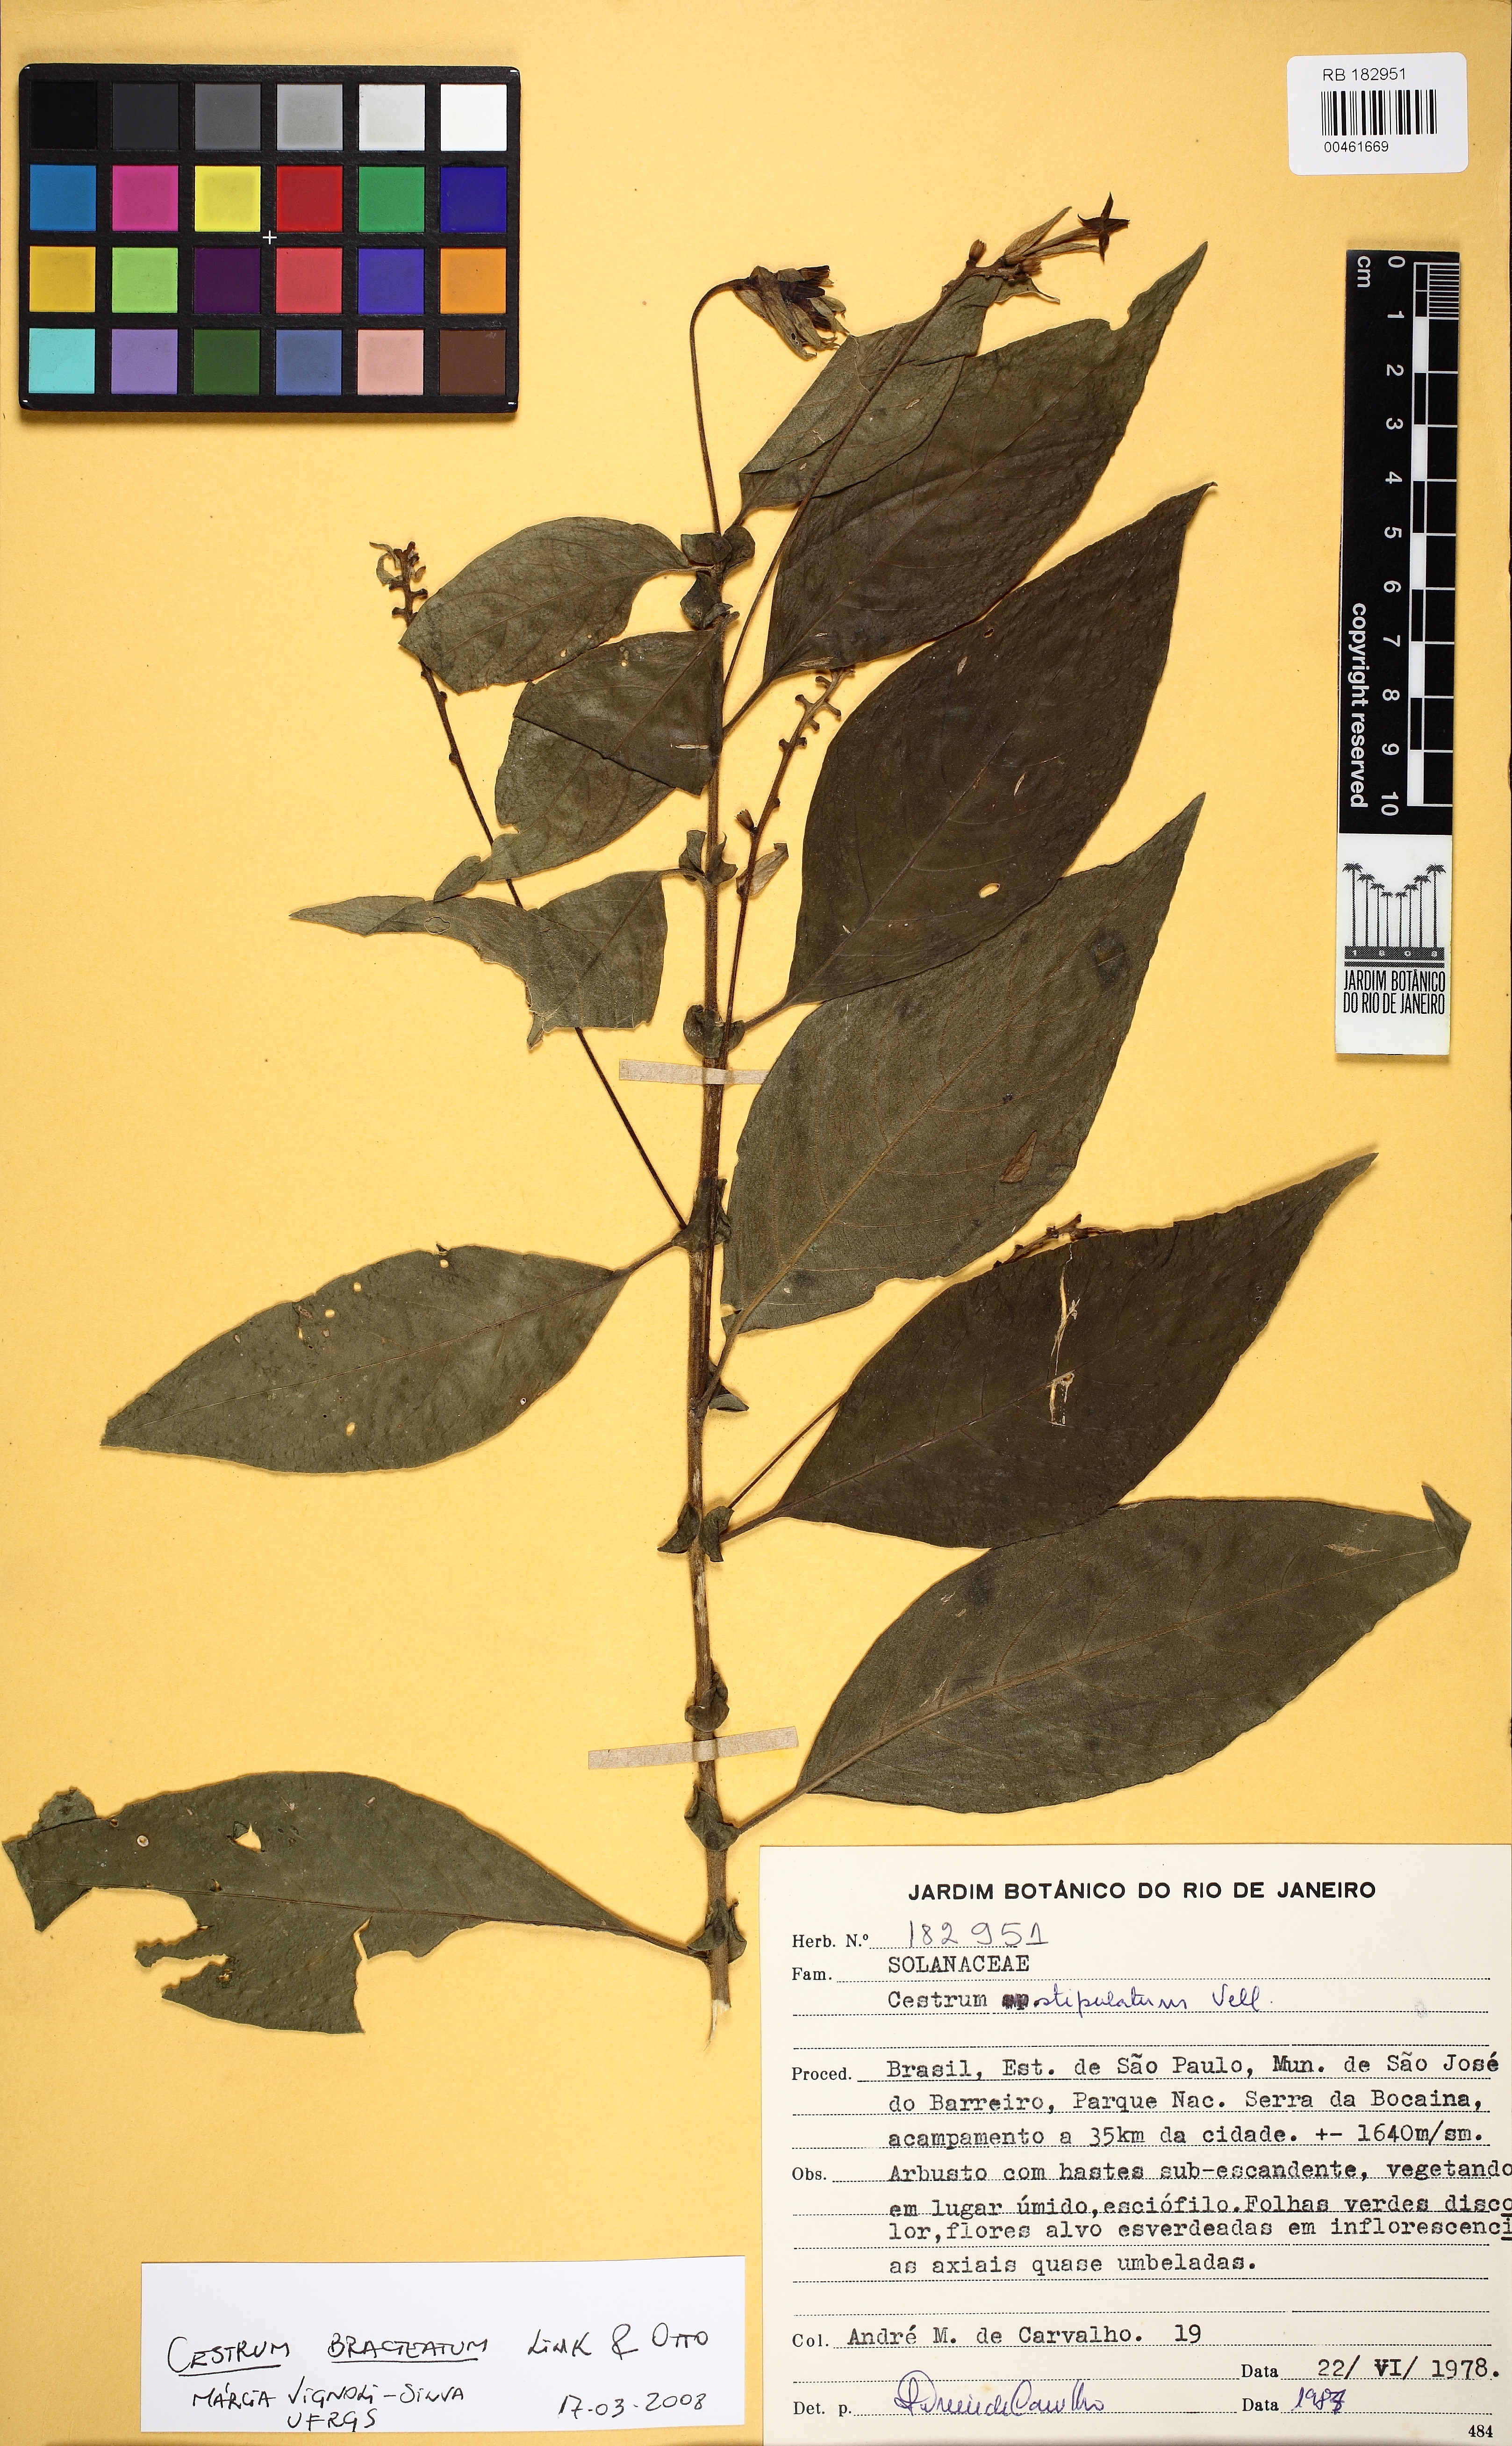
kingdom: Plantae
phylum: Tracheophyta
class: Magnoliopsida
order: Solanales
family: Solanaceae
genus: Cestrum
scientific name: Cestrum bracteatum
